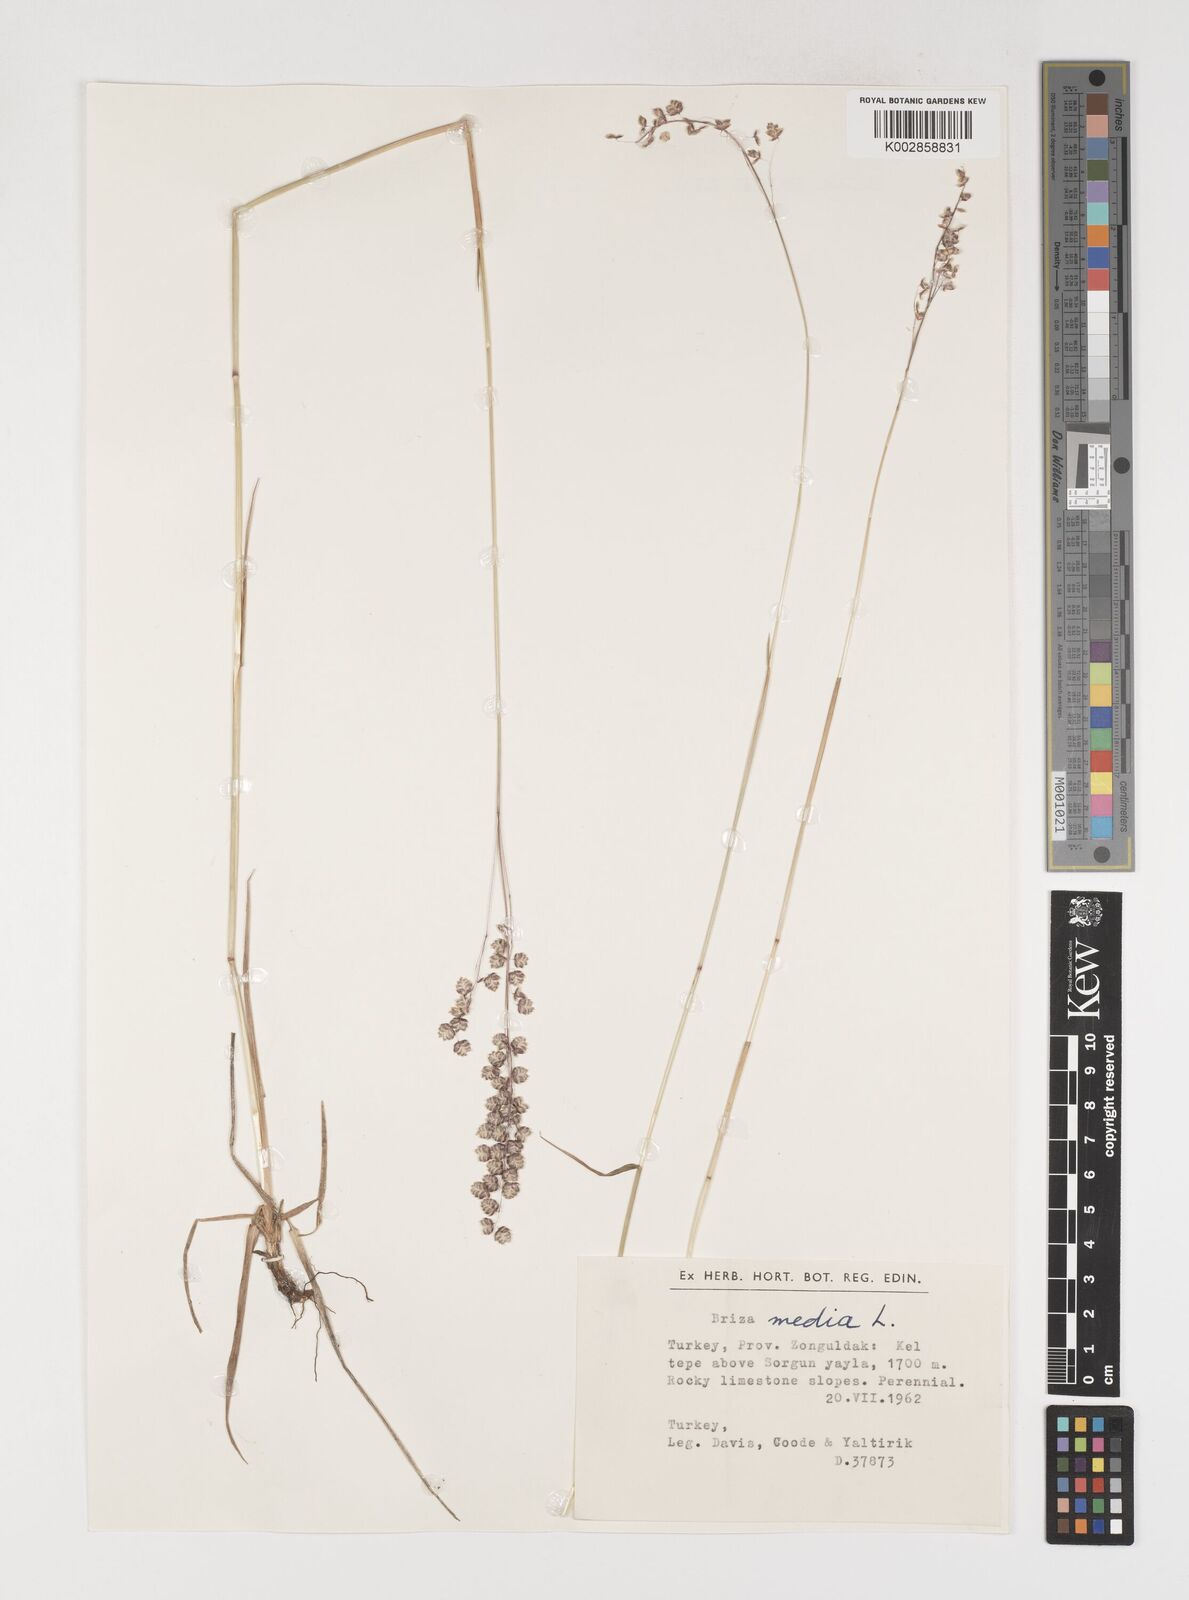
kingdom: Plantae
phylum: Tracheophyta
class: Liliopsida
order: Poales
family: Poaceae
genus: Briza
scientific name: Briza media
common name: Quaking grass
